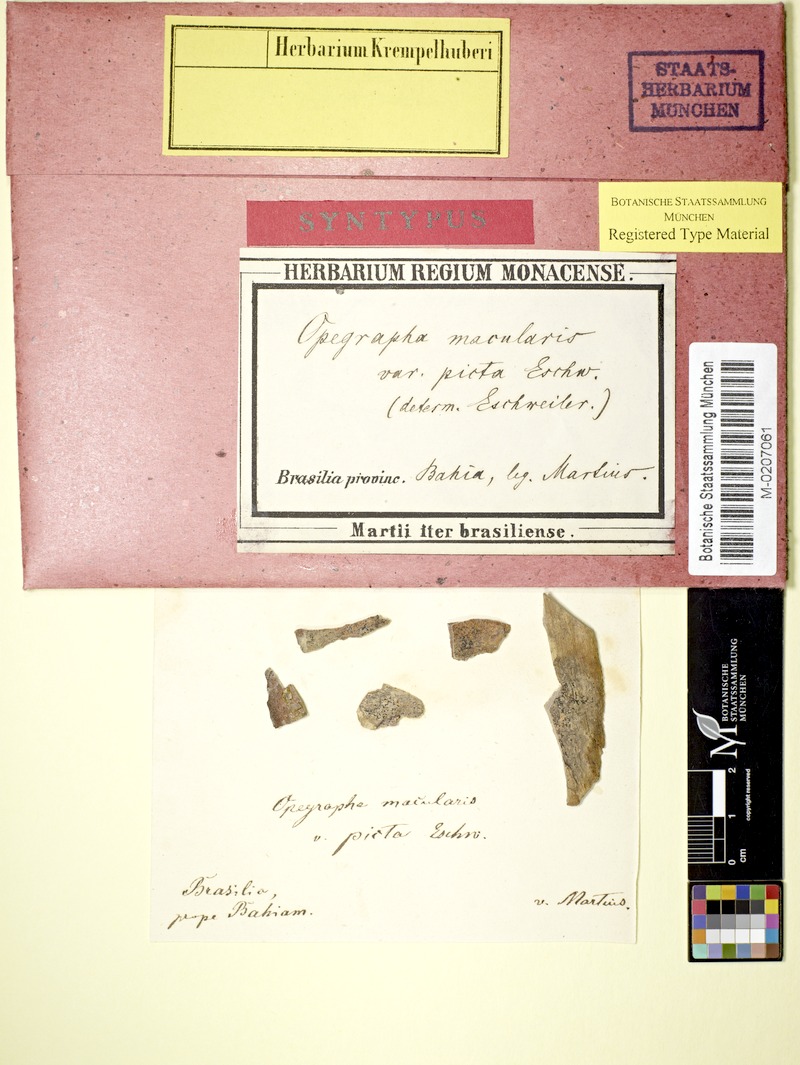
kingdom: Fungi
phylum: Ascomycota
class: Arthoniomycetes
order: Arthoniales
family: Opegraphaceae
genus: Opegrapha
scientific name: Opegrapha agelaea
